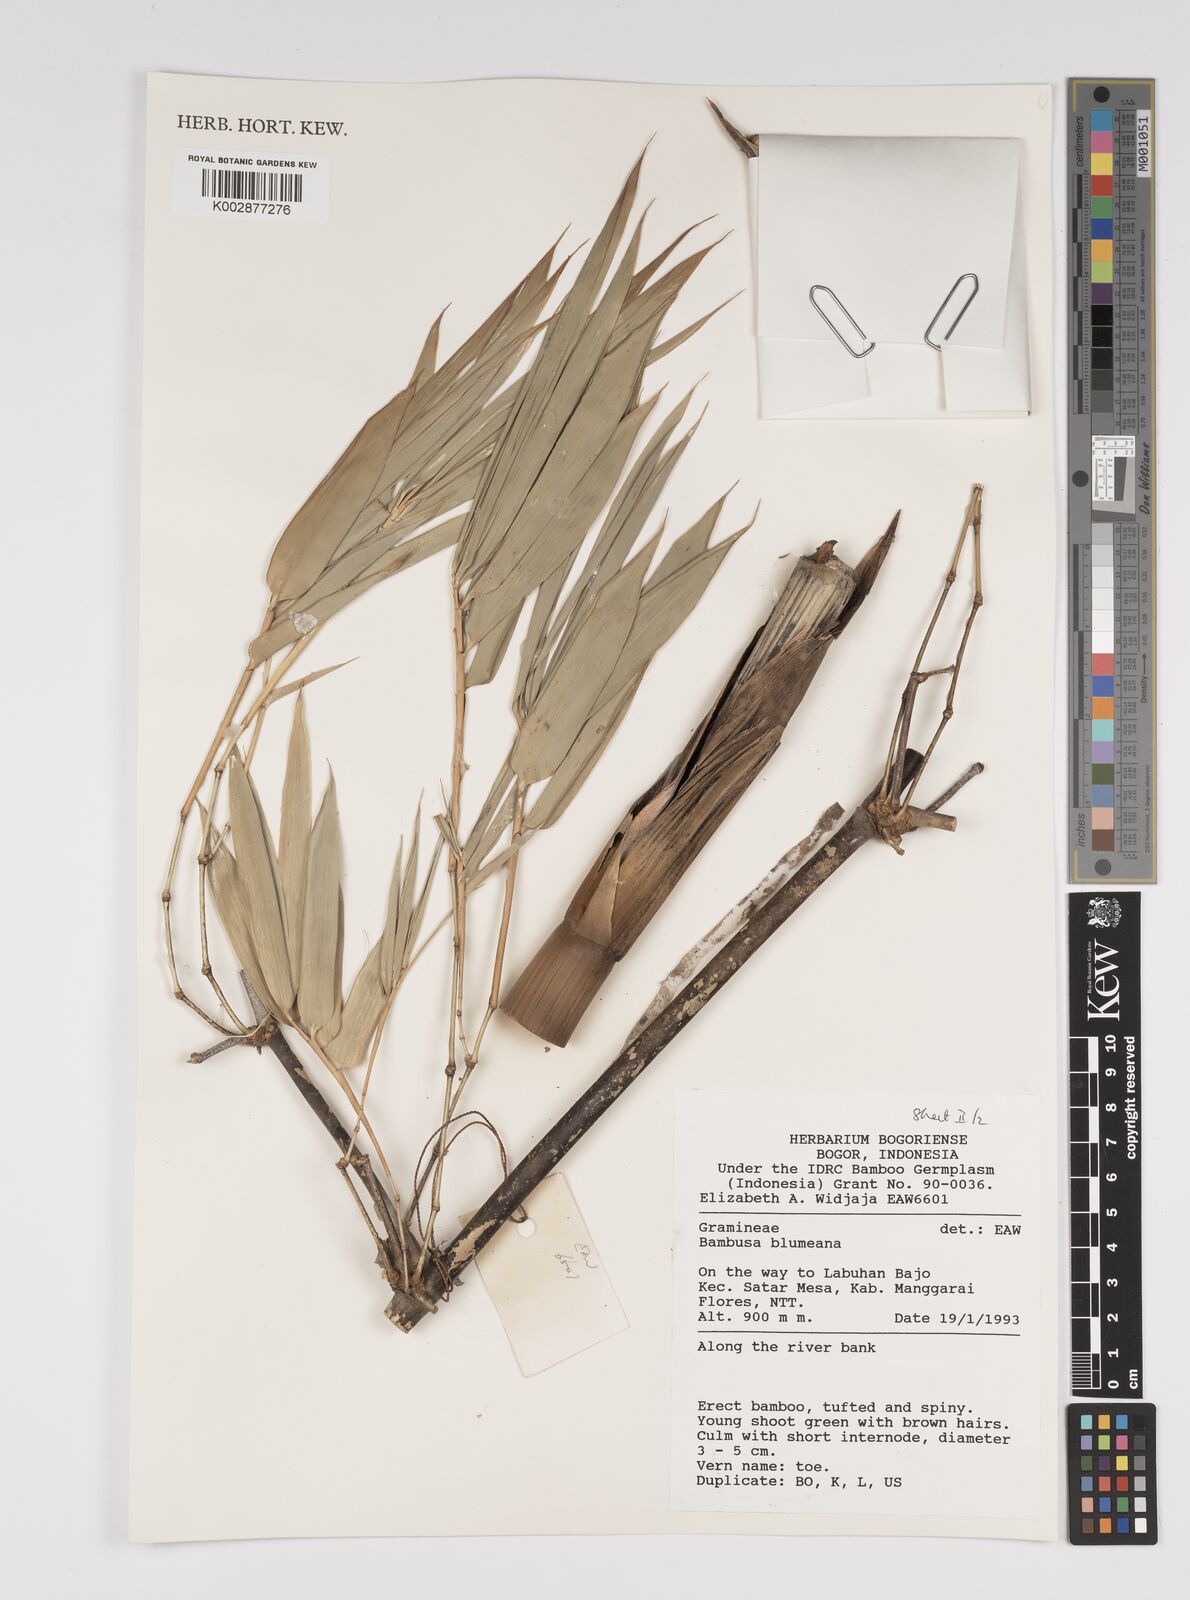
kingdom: Plantae
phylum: Tracheophyta
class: Liliopsida
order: Poales
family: Poaceae
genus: Bambusa
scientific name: Bambusa spinosa
